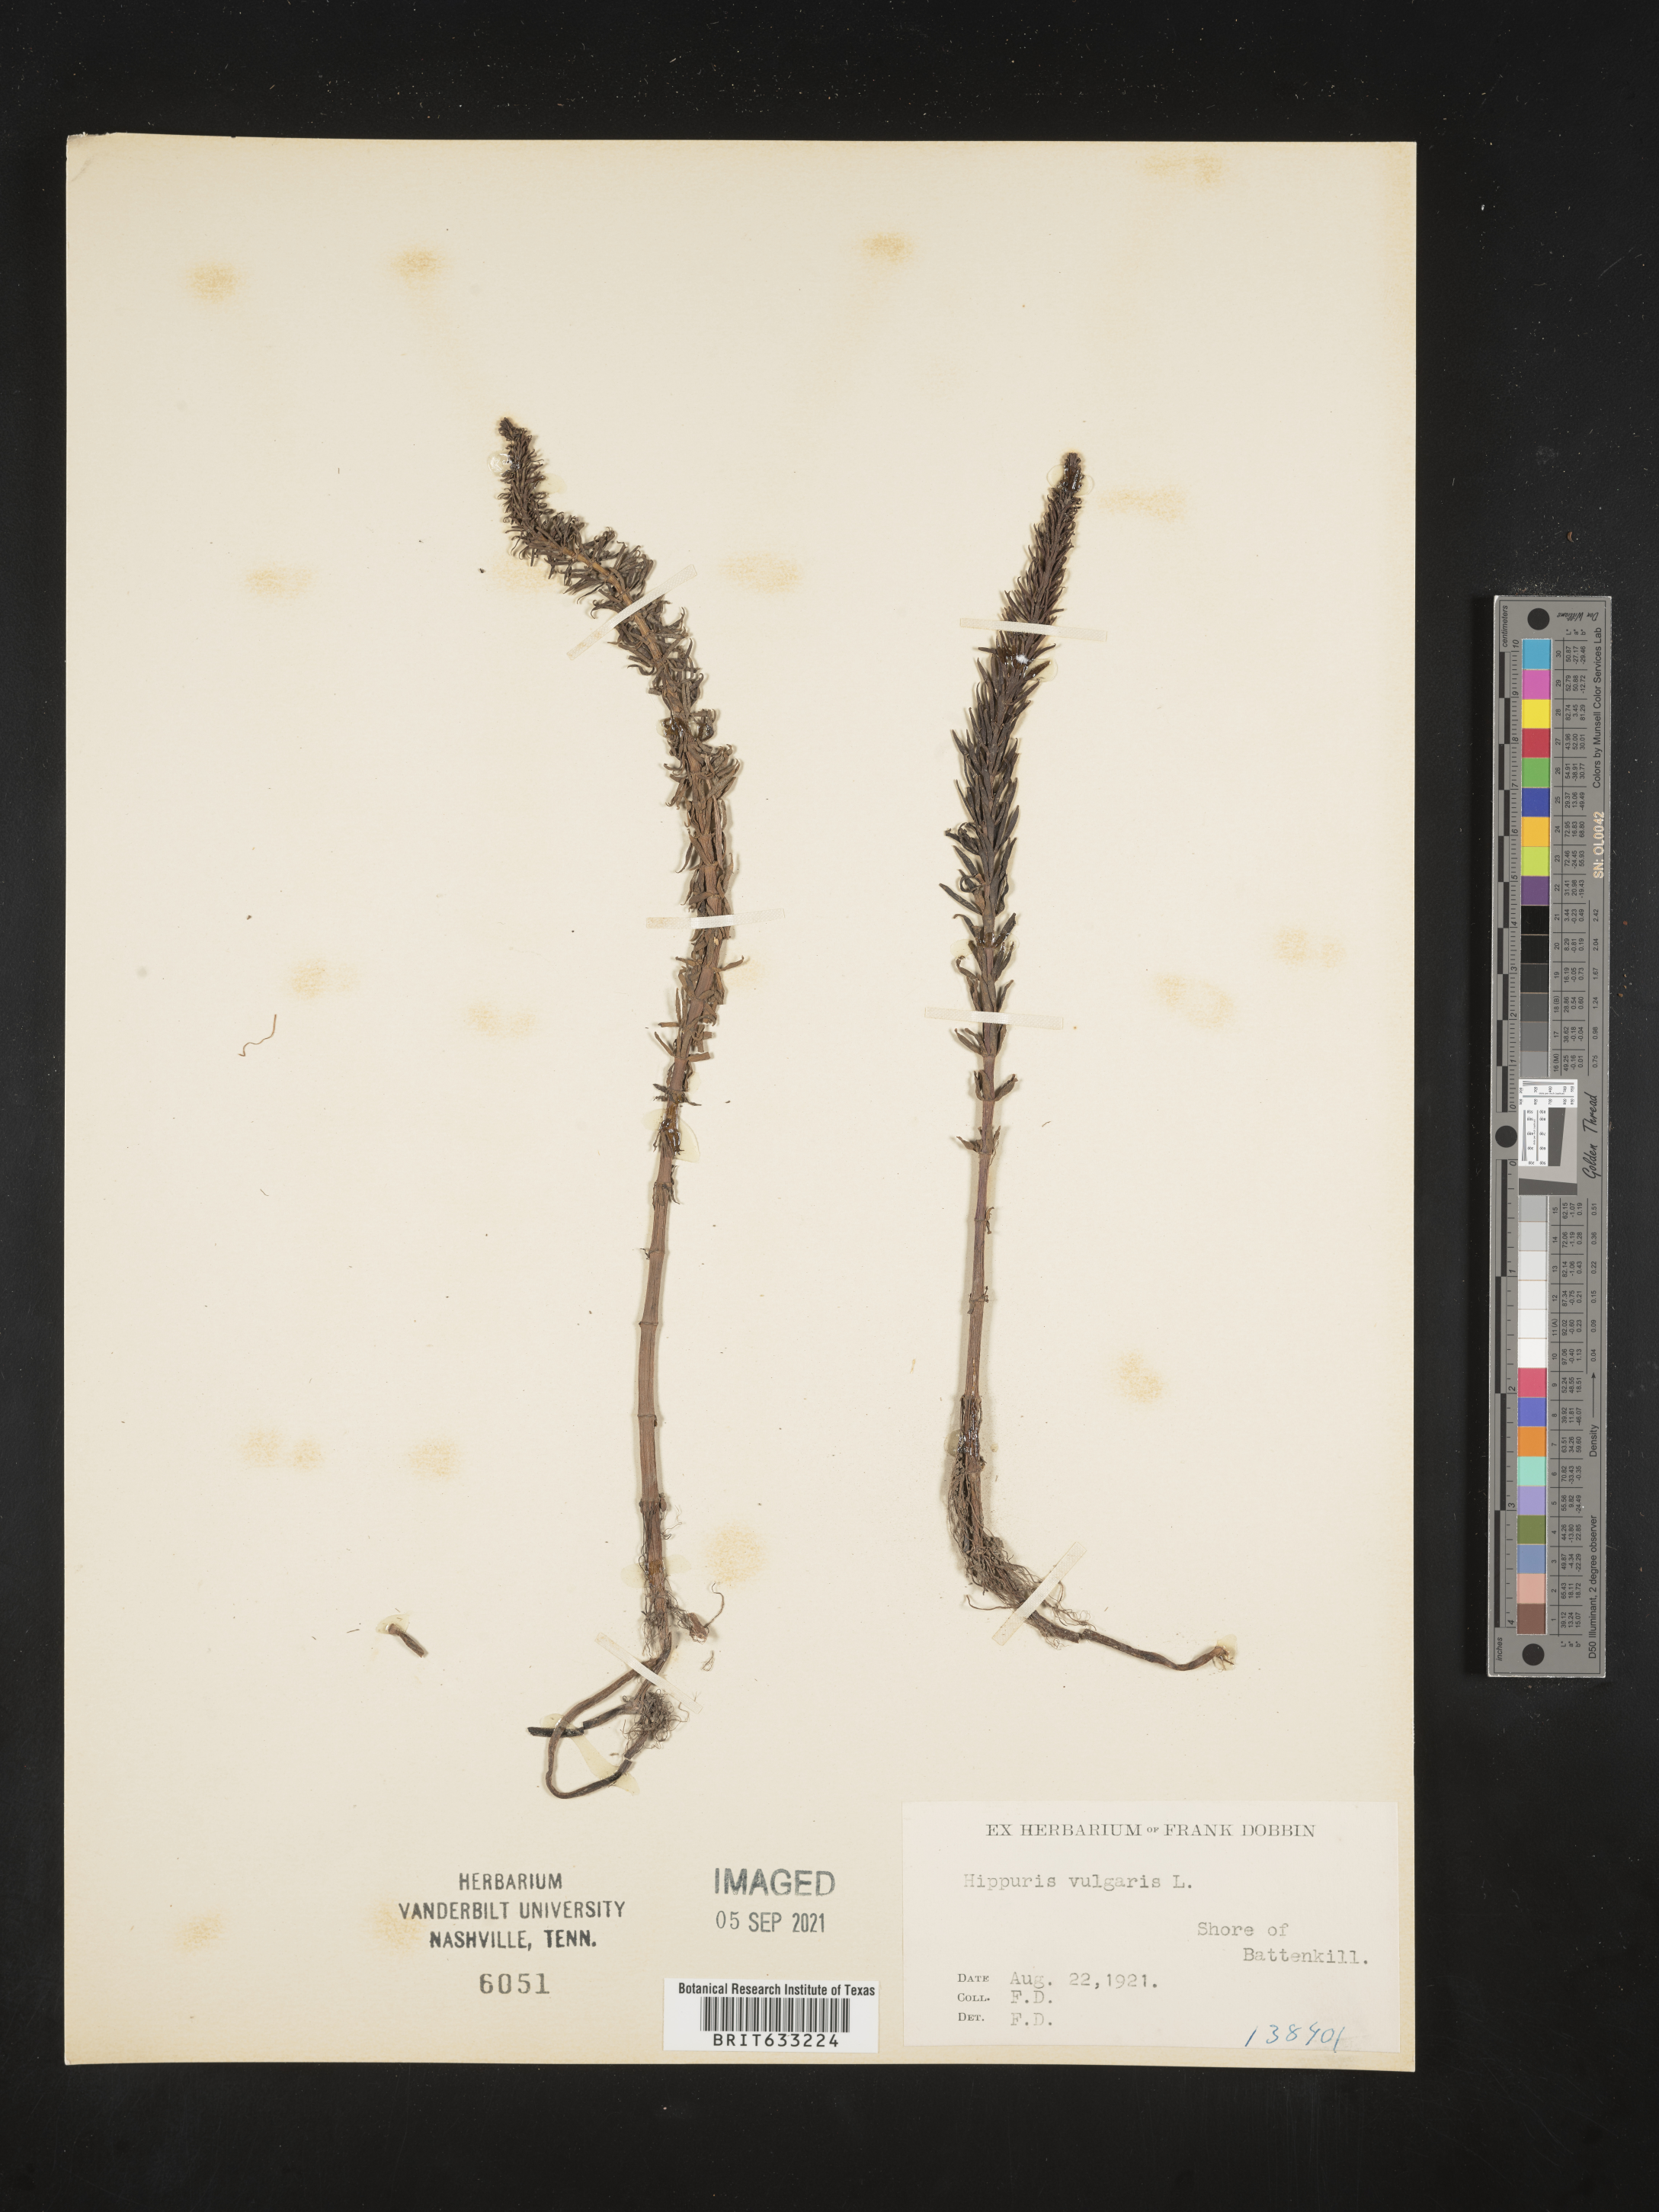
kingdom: Plantae
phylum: Tracheophyta
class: Magnoliopsida
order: Lamiales
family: Plantaginaceae
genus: Hippuris
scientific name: Hippuris vulgaris
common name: Mare's-tail
